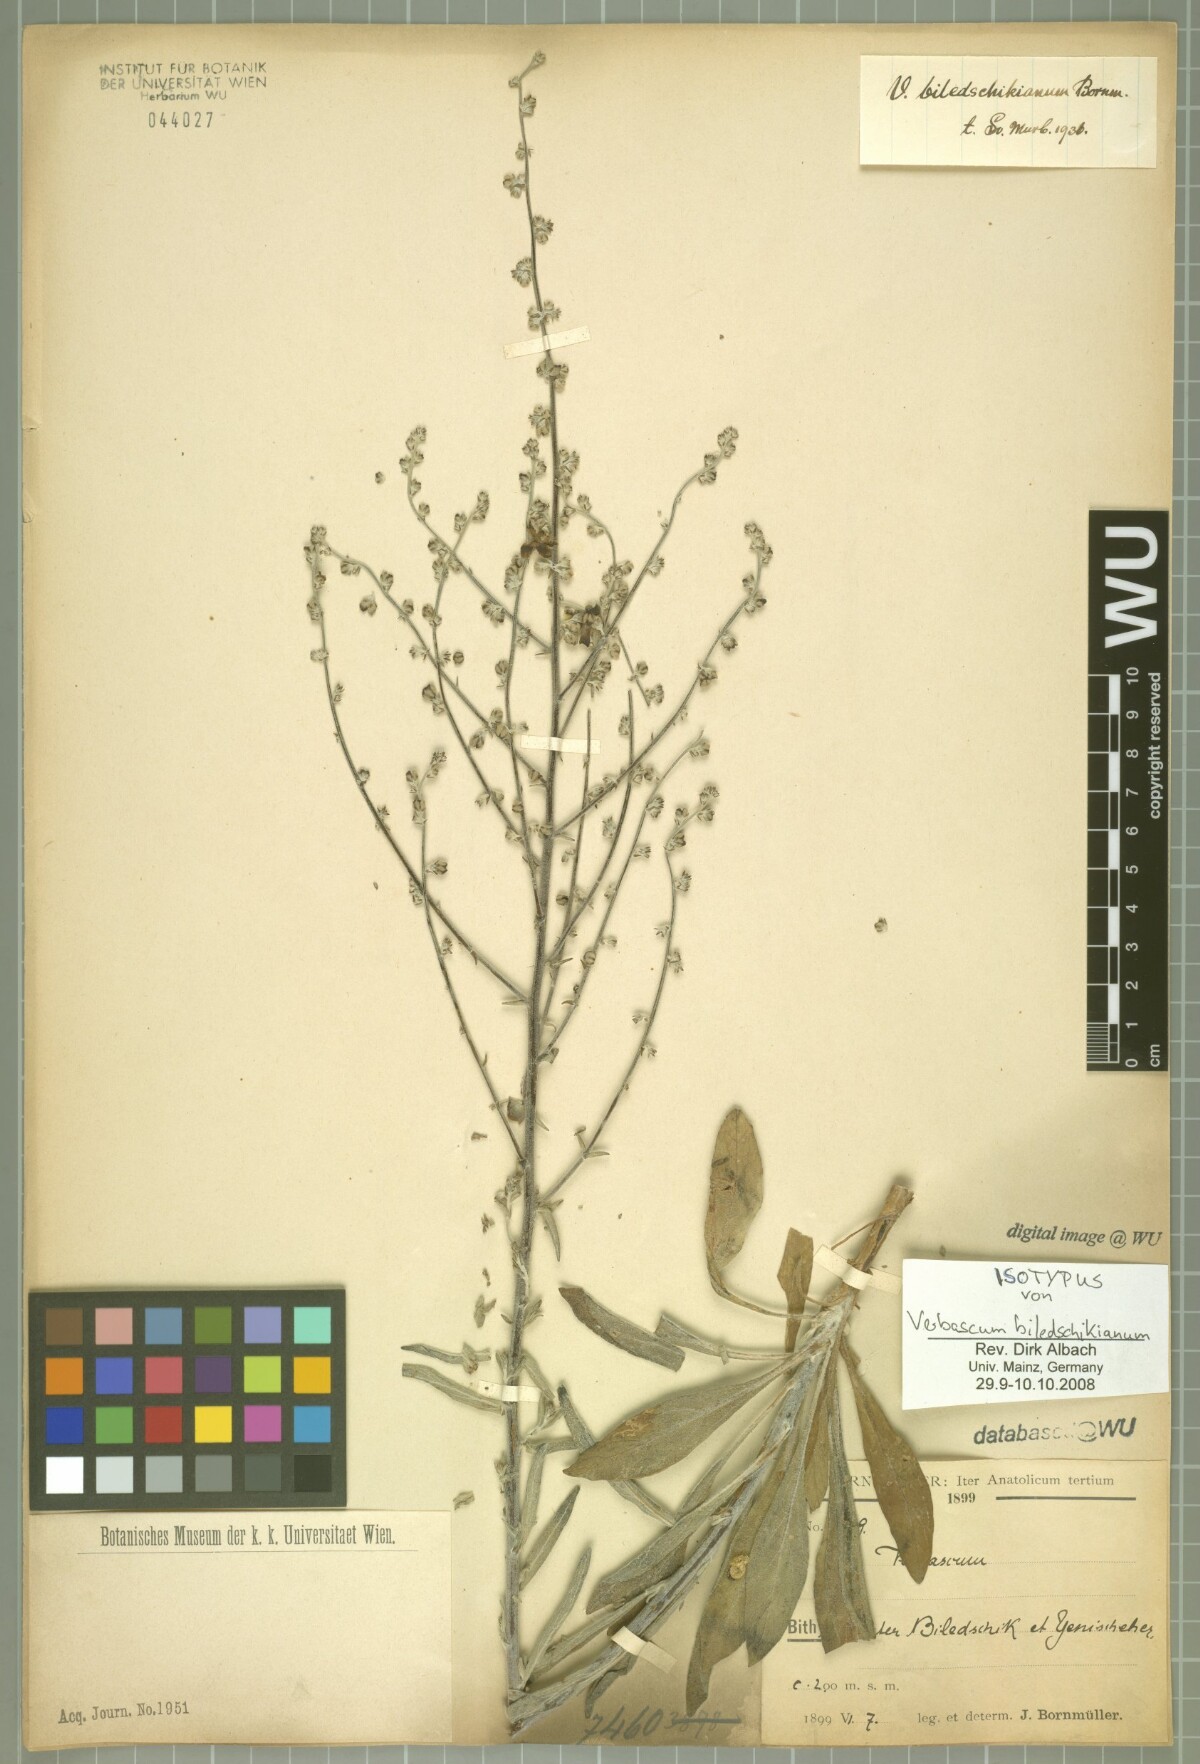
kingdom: Plantae
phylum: Tracheophyta
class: Magnoliopsida
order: Lamiales
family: Scrophulariaceae
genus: Verbascum
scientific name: Verbascum biledschikianum
